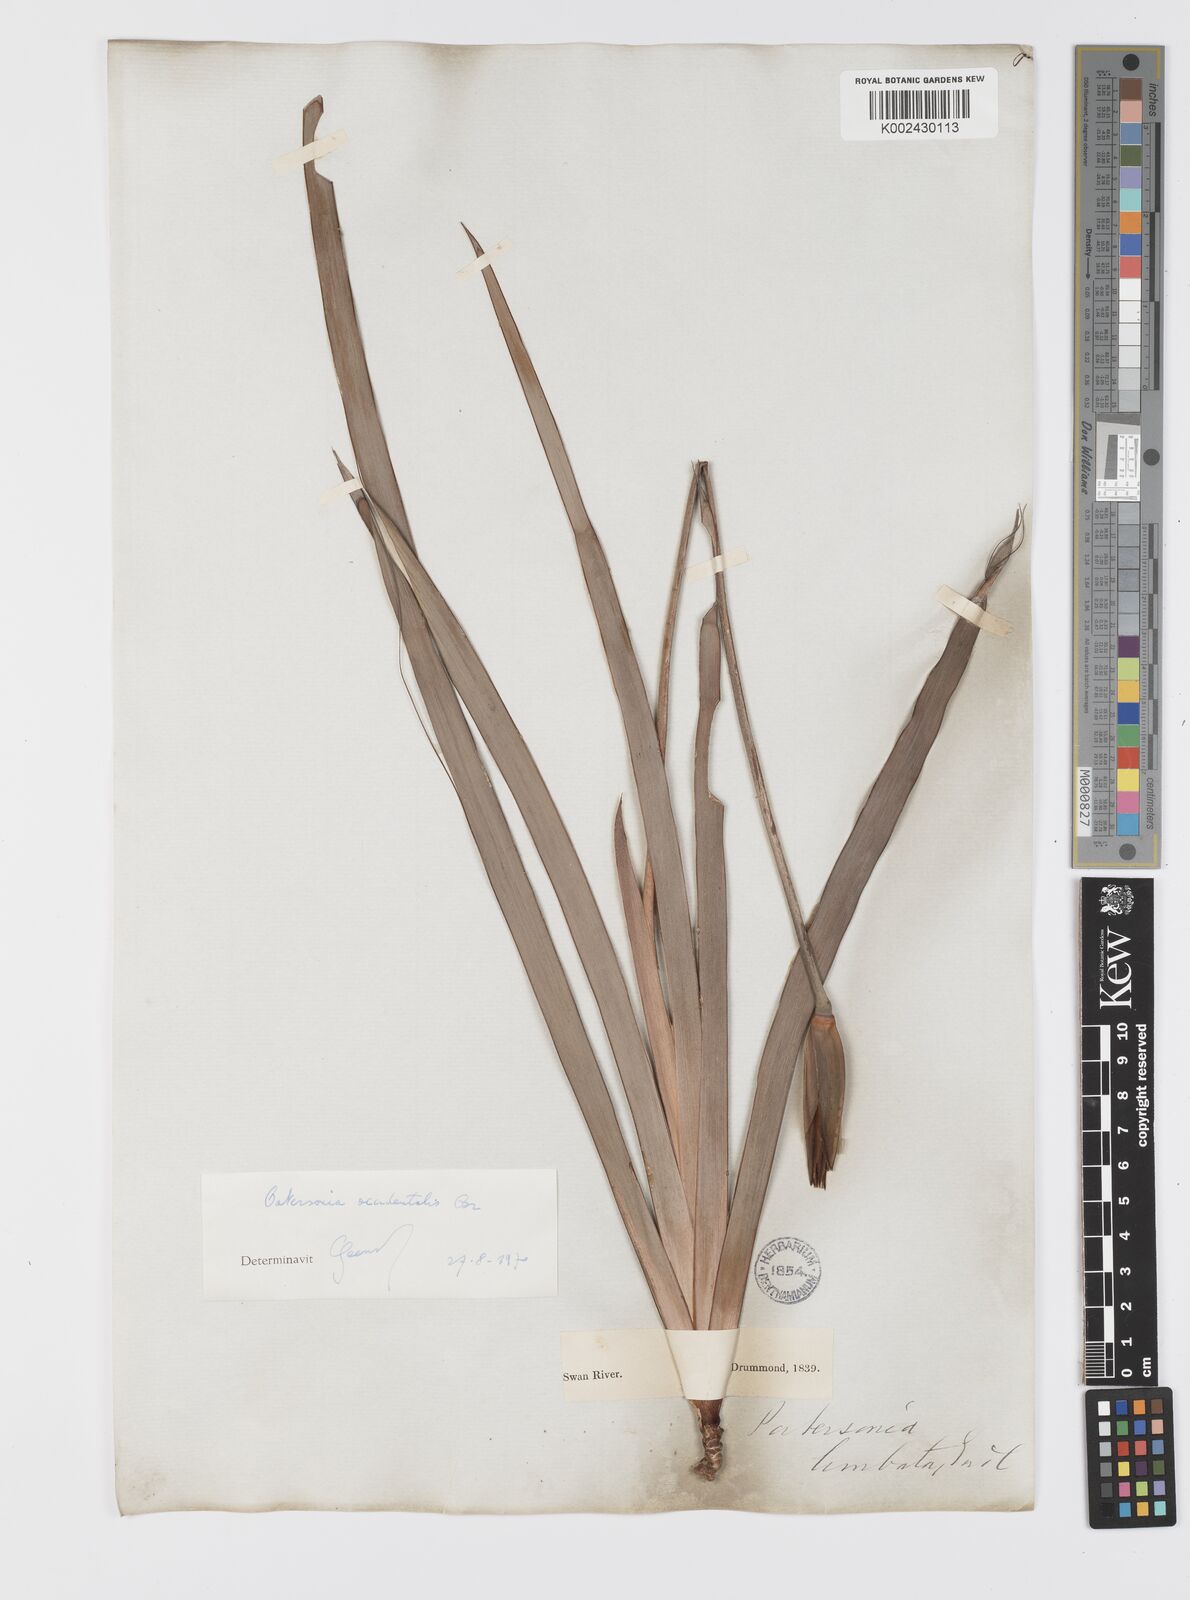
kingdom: Plantae
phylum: Tracheophyta
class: Liliopsida
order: Asparagales
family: Iridaceae
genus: Patersonia
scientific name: Patersonia limbata
